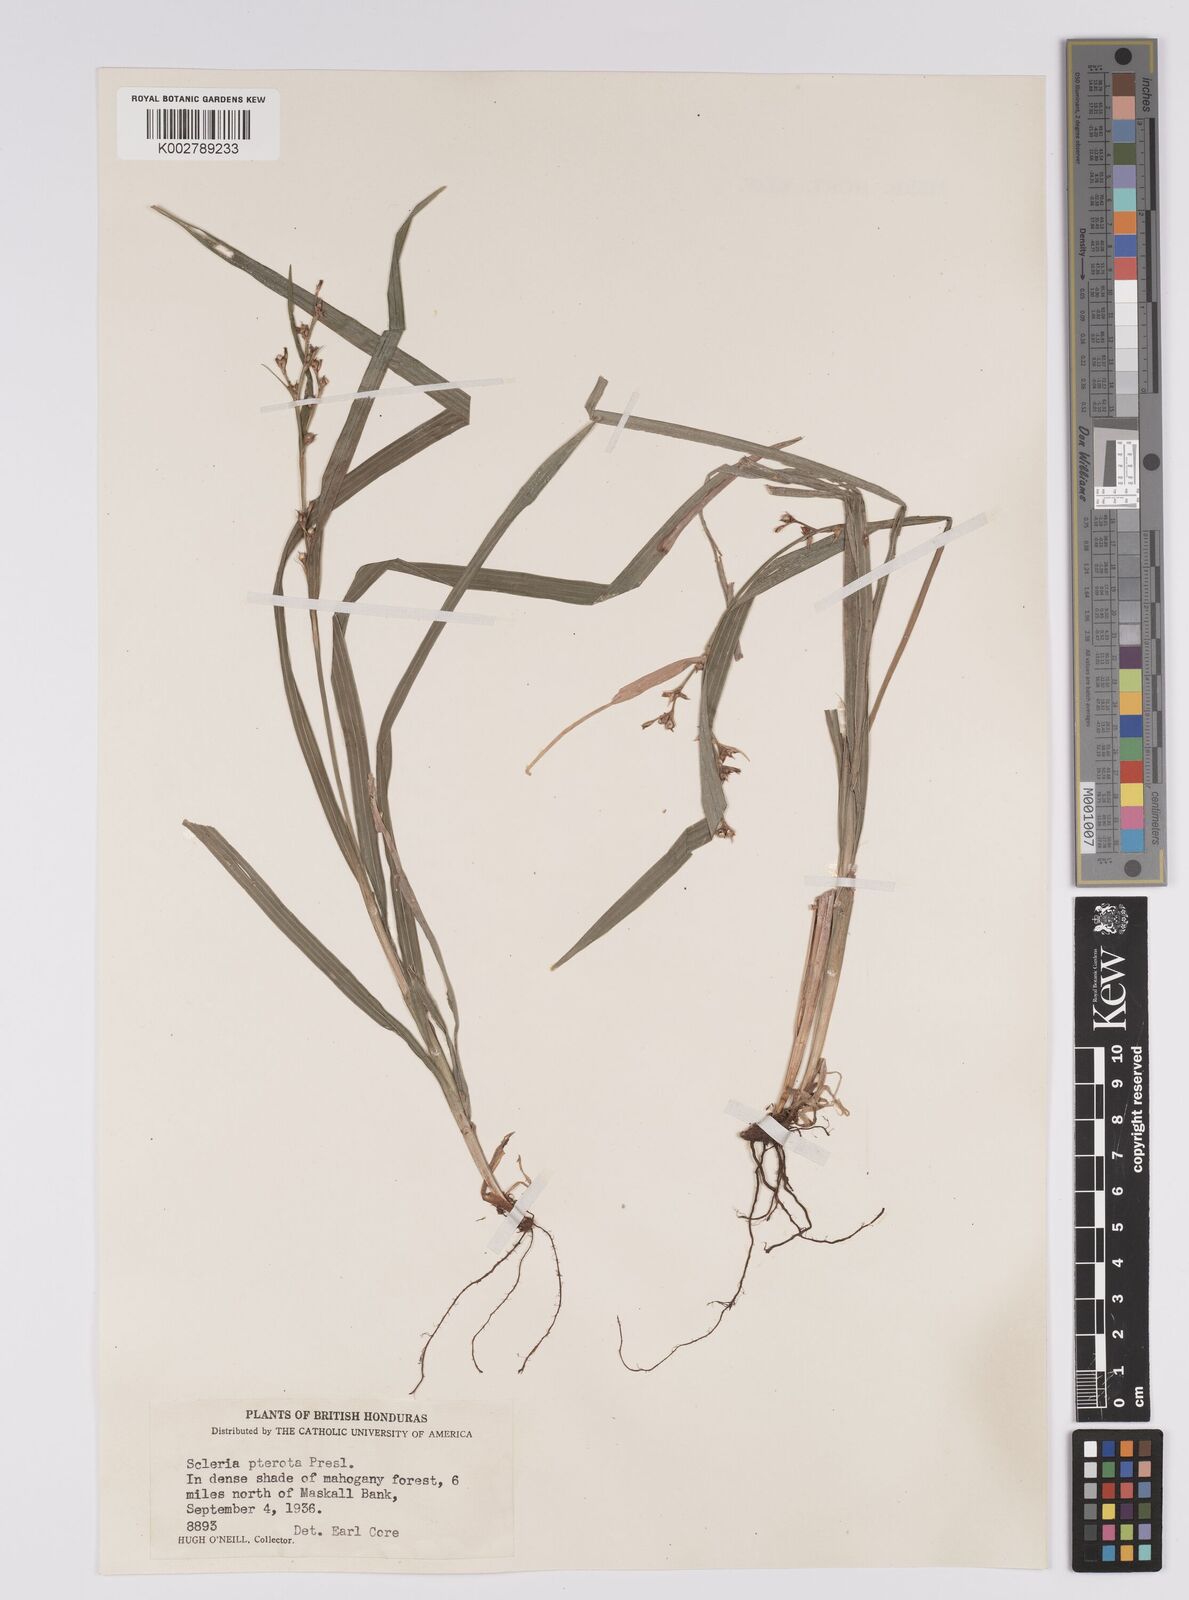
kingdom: Plantae
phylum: Tracheophyta
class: Liliopsida
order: Poales
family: Cyperaceae
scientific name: Cyperaceae
